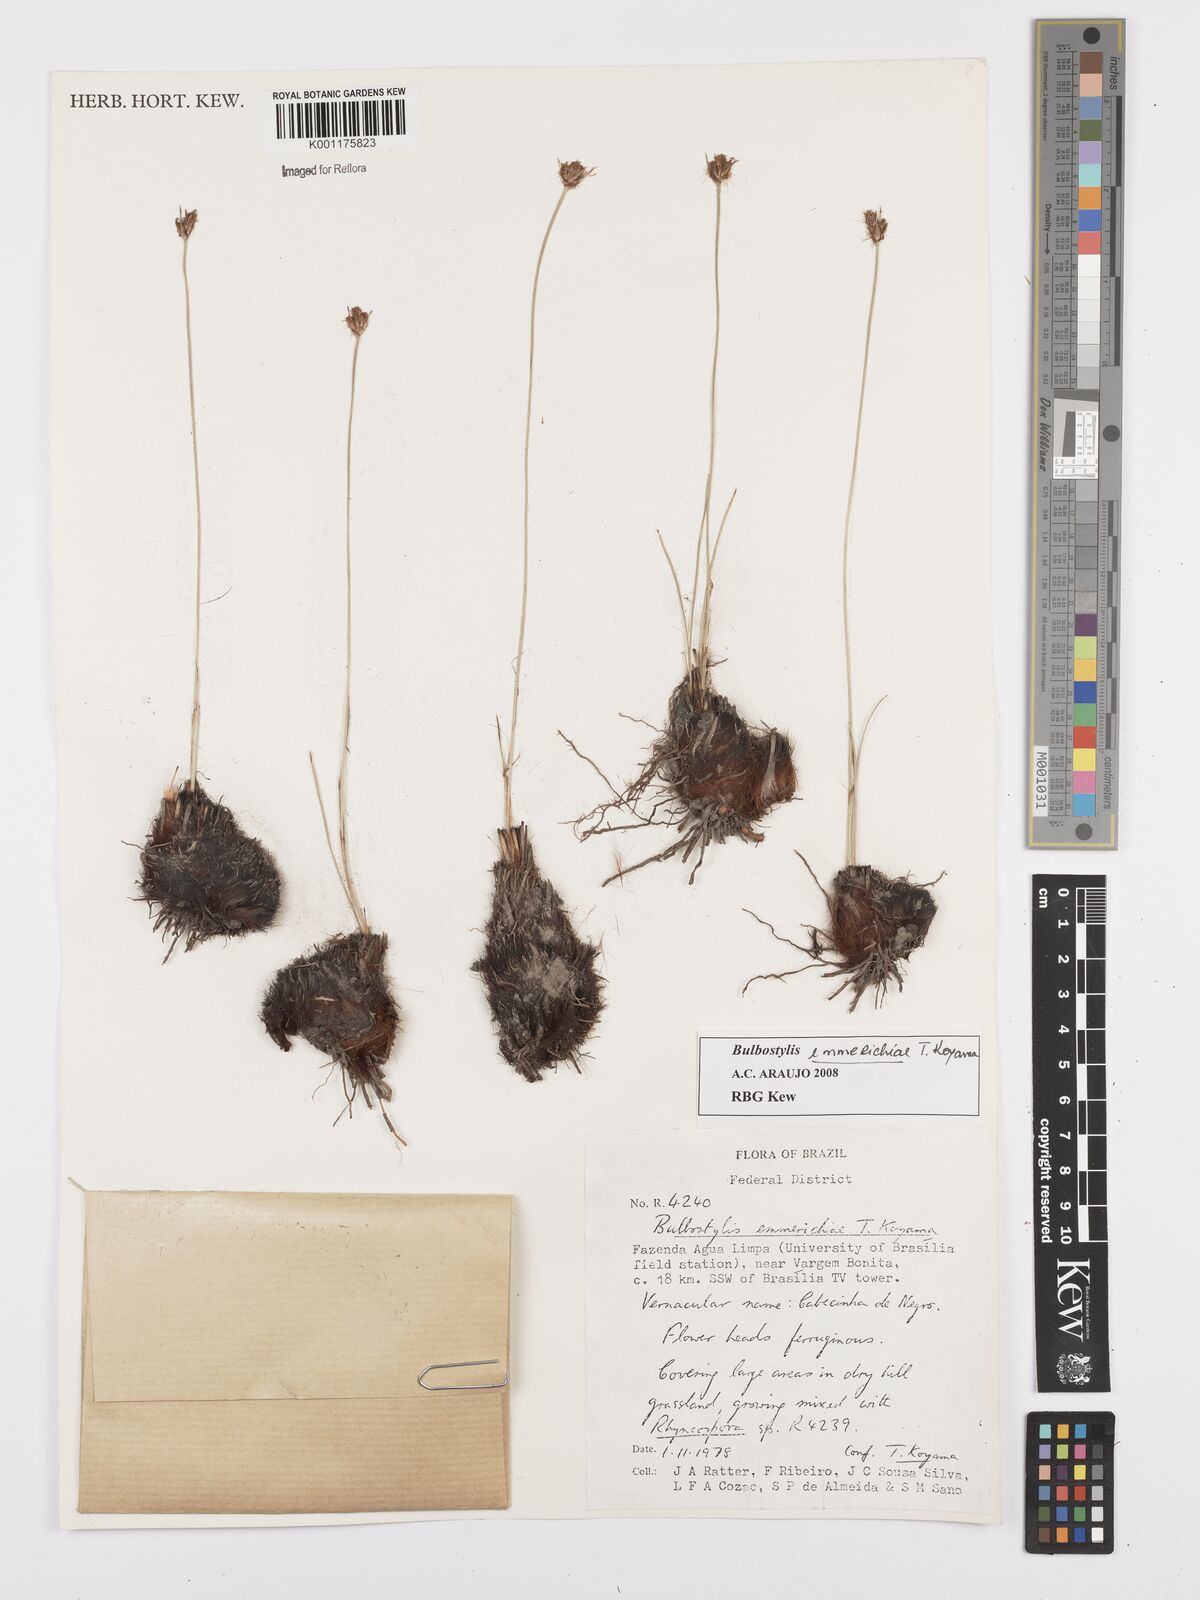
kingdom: Plantae
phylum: Tracheophyta
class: Liliopsida
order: Poales
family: Cyperaceae
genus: Bulbostylis
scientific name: Bulbostylis emmerichiae
